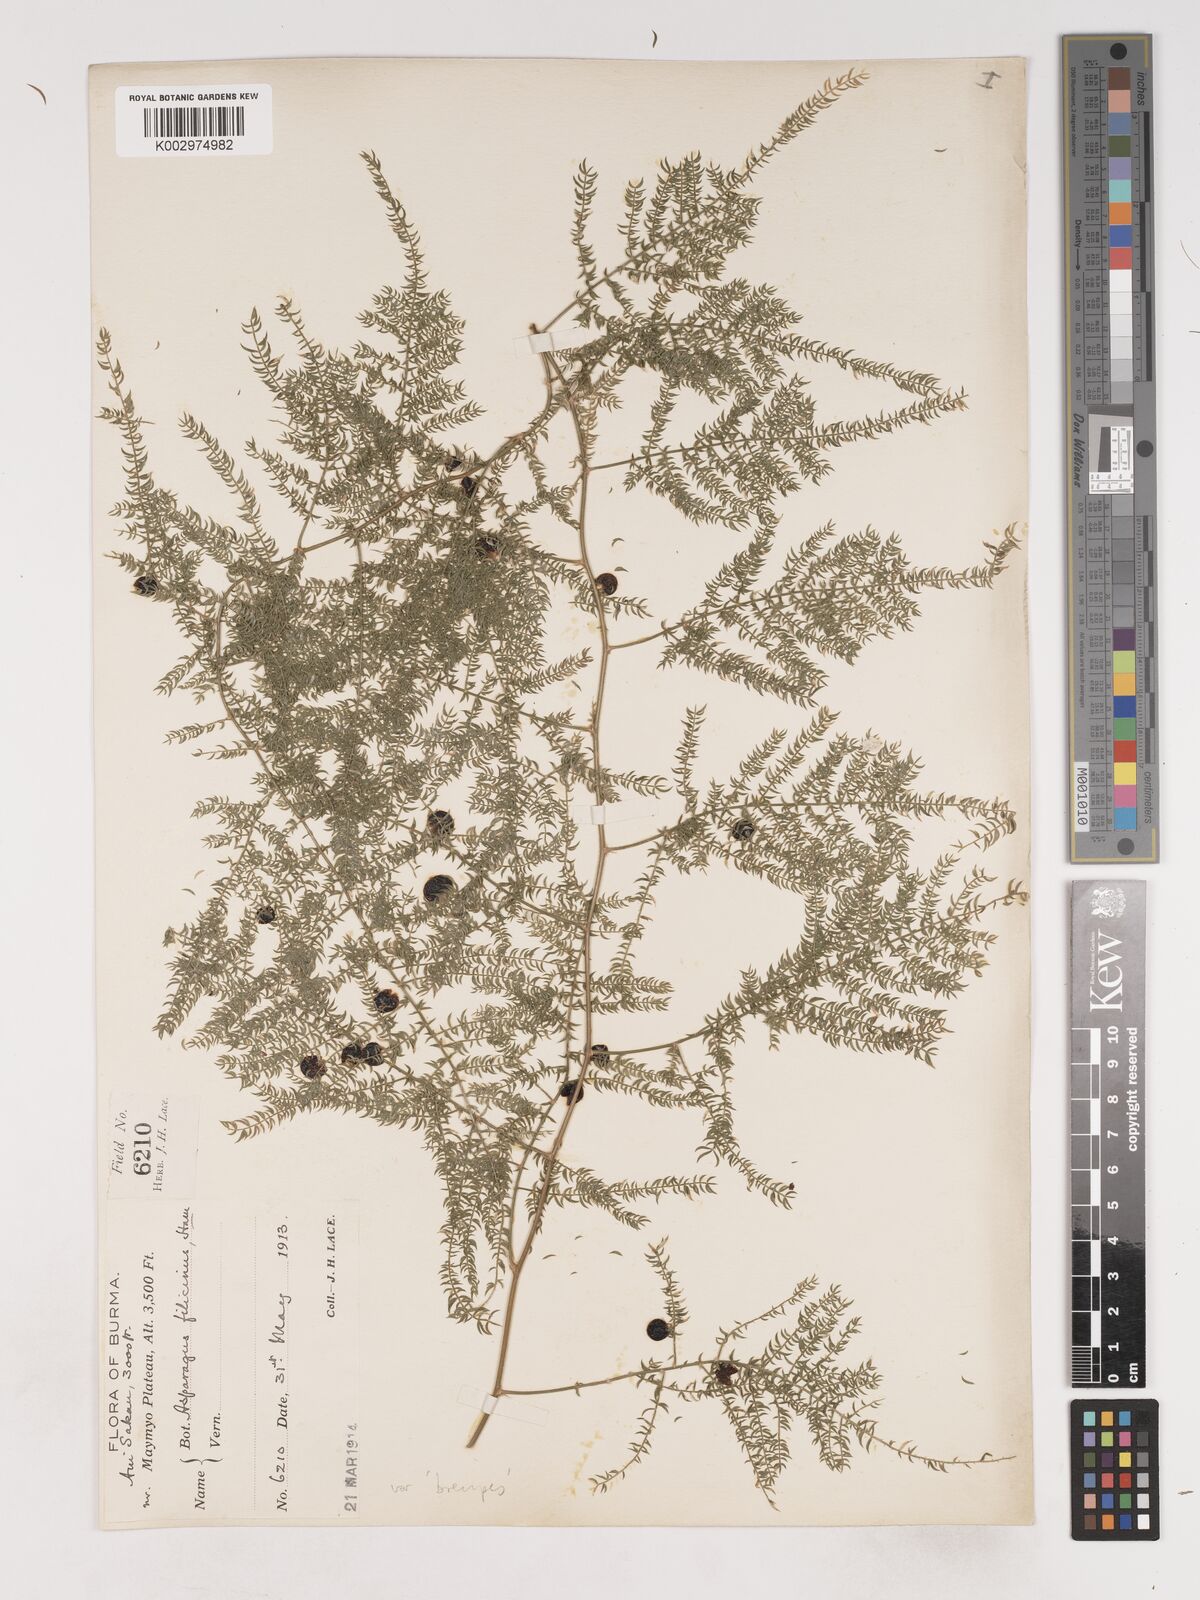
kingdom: Plantae
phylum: Tracheophyta
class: Liliopsida
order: Asparagales
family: Asparagaceae
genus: Asparagus
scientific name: Asparagus filicinus
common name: Fern asparagus
